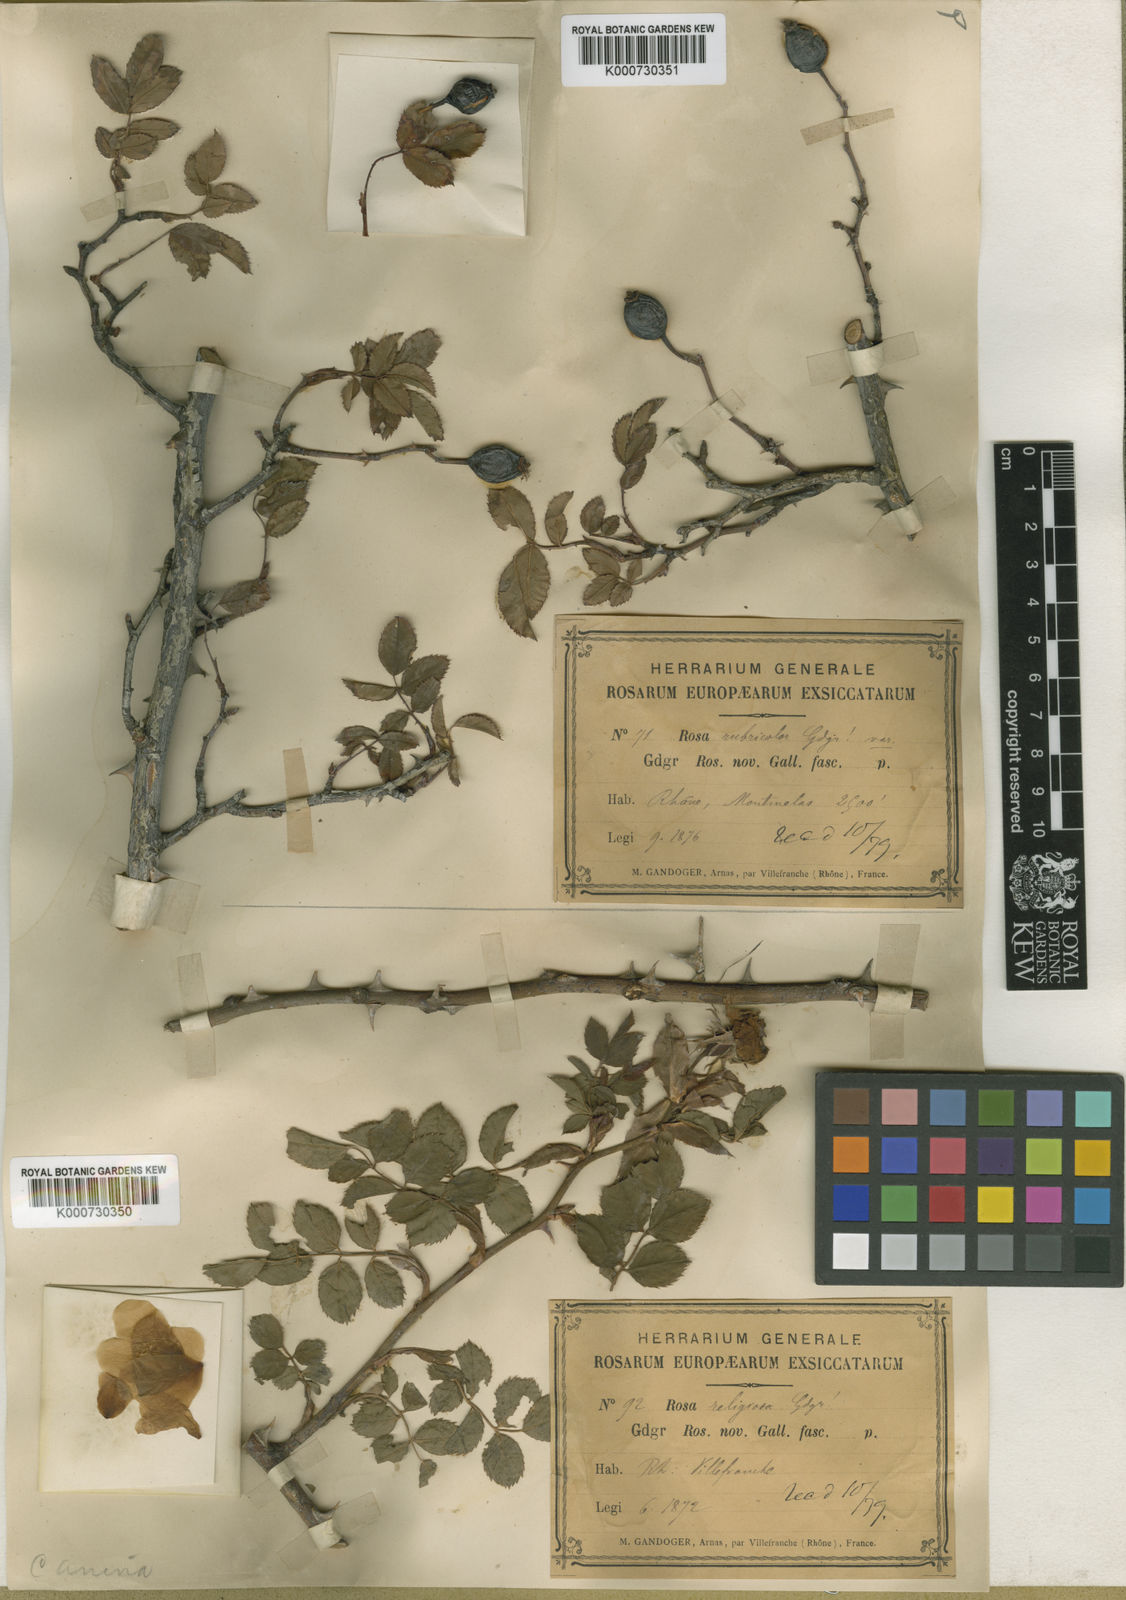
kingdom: Plantae
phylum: Tracheophyta
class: Magnoliopsida
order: Rosales
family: Rosaceae
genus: Rosa
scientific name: Rosa canina
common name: Dog rose
